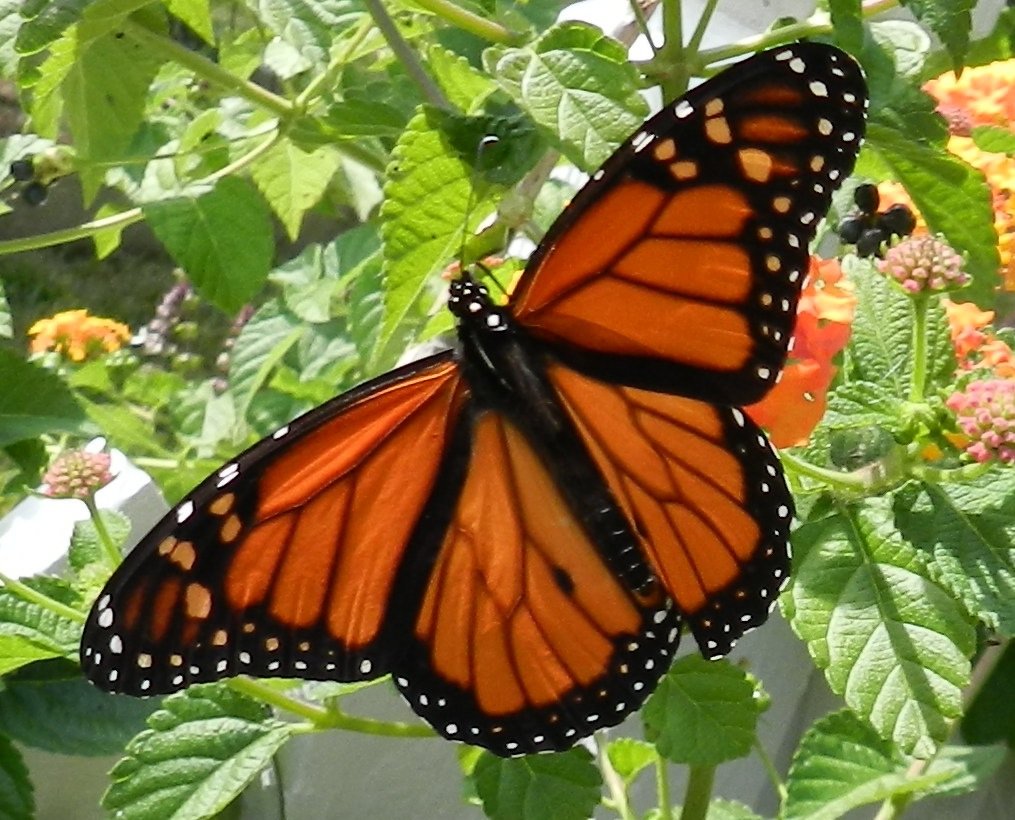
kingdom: Animalia
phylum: Arthropoda
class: Insecta
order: Lepidoptera
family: Nymphalidae
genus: Danaus
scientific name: Danaus plexippus
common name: Monarch
